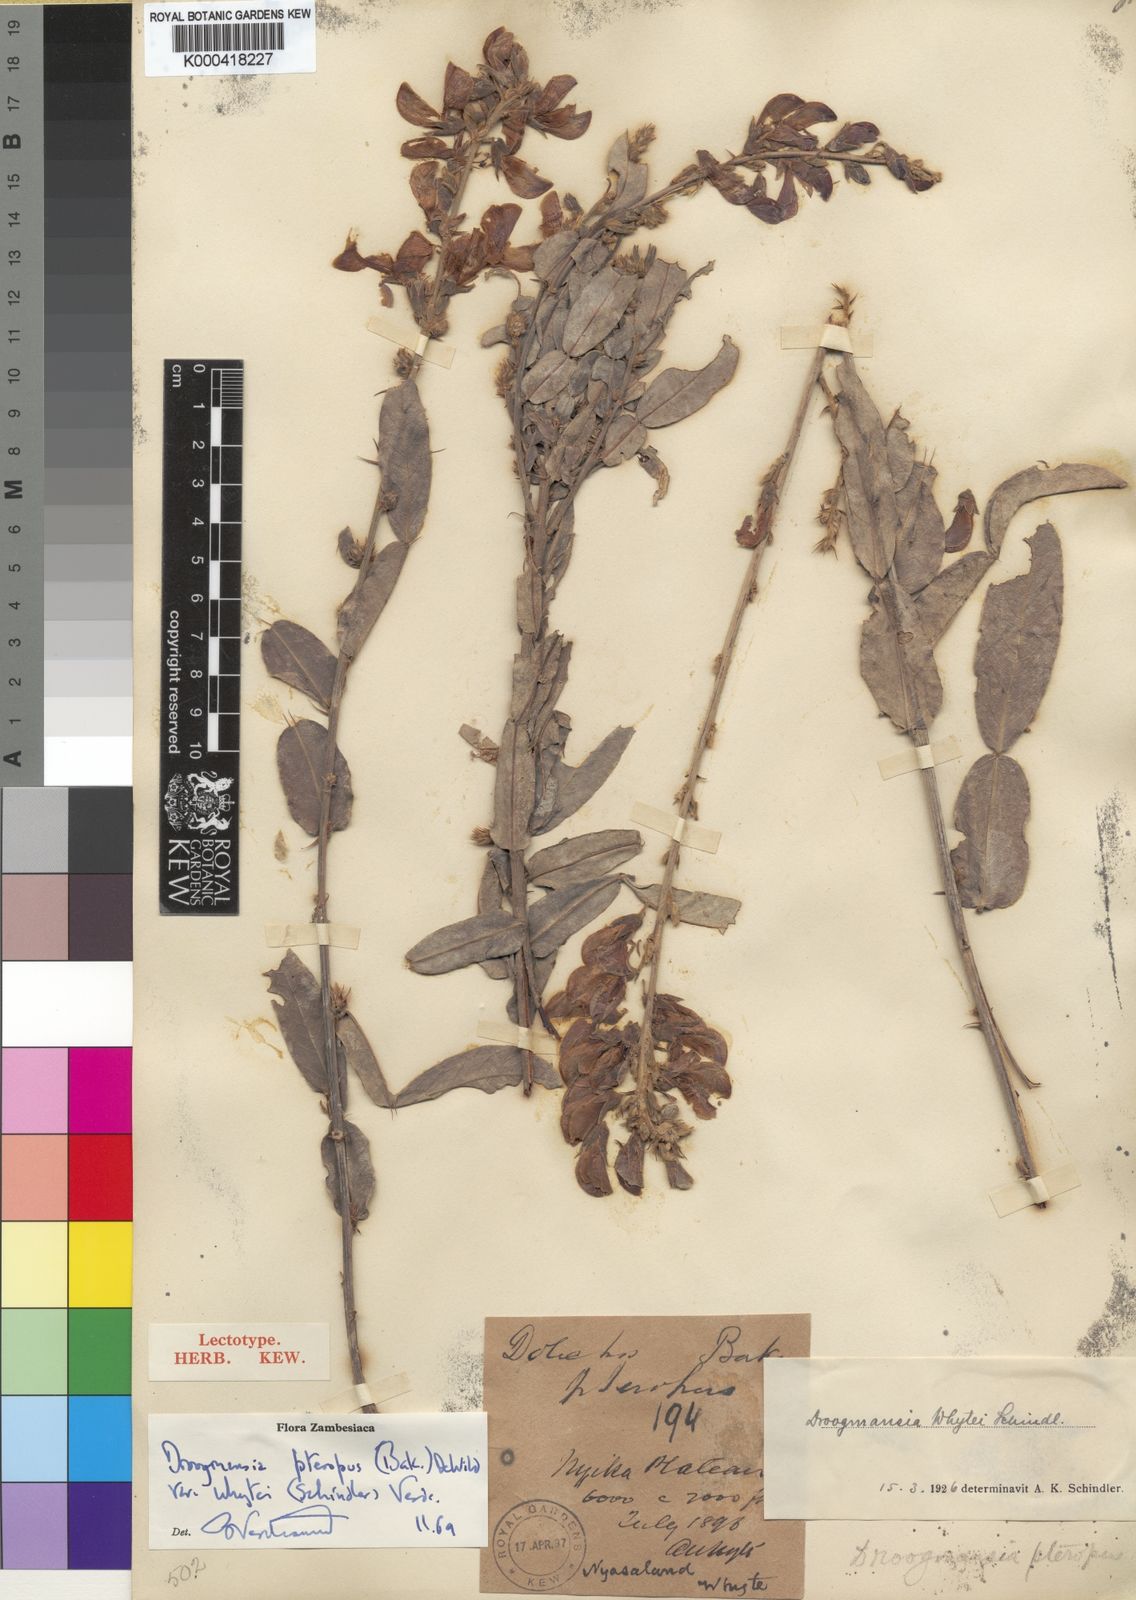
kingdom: Plantae
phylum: Tracheophyta
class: Magnoliopsida
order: Fabales
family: Fabaceae
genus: Droogmansia
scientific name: Droogmansia pteropus
